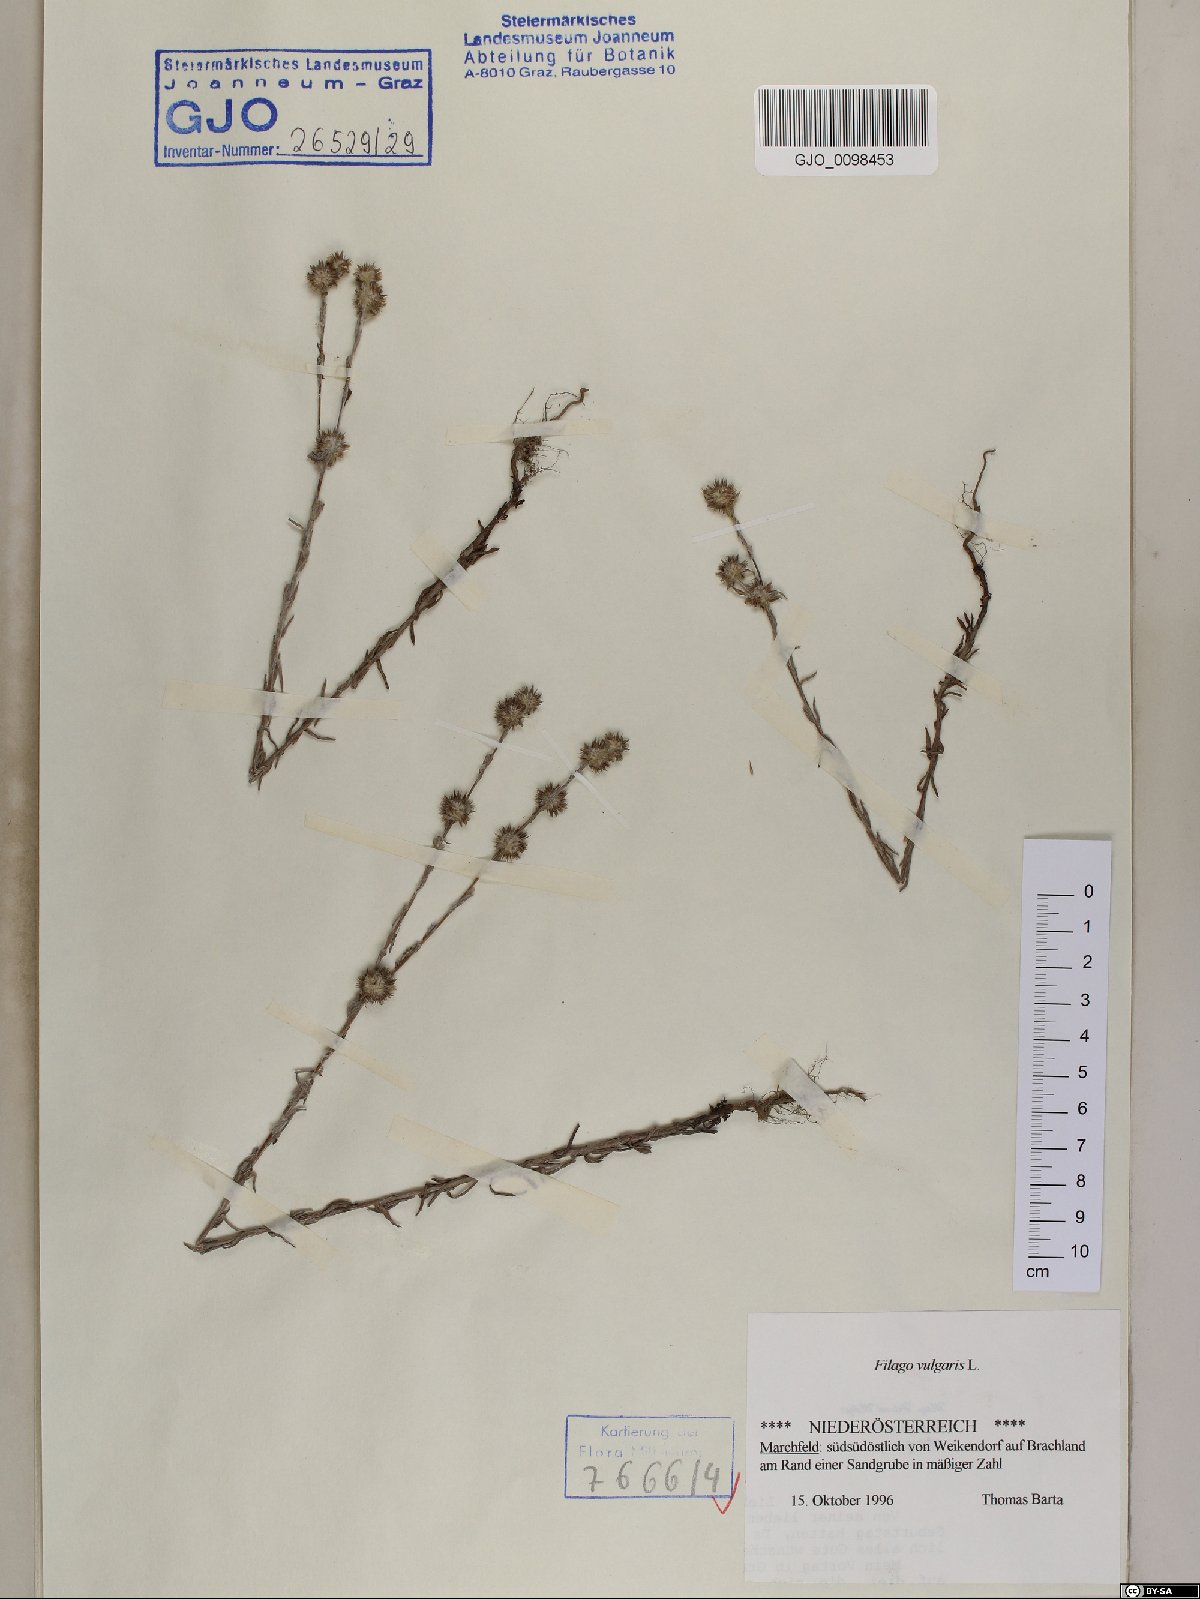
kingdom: Plantae
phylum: Tracheophyta
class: Magnoliopsida
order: Asterales
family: Asteraceae
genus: Filago
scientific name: Filago germanica
